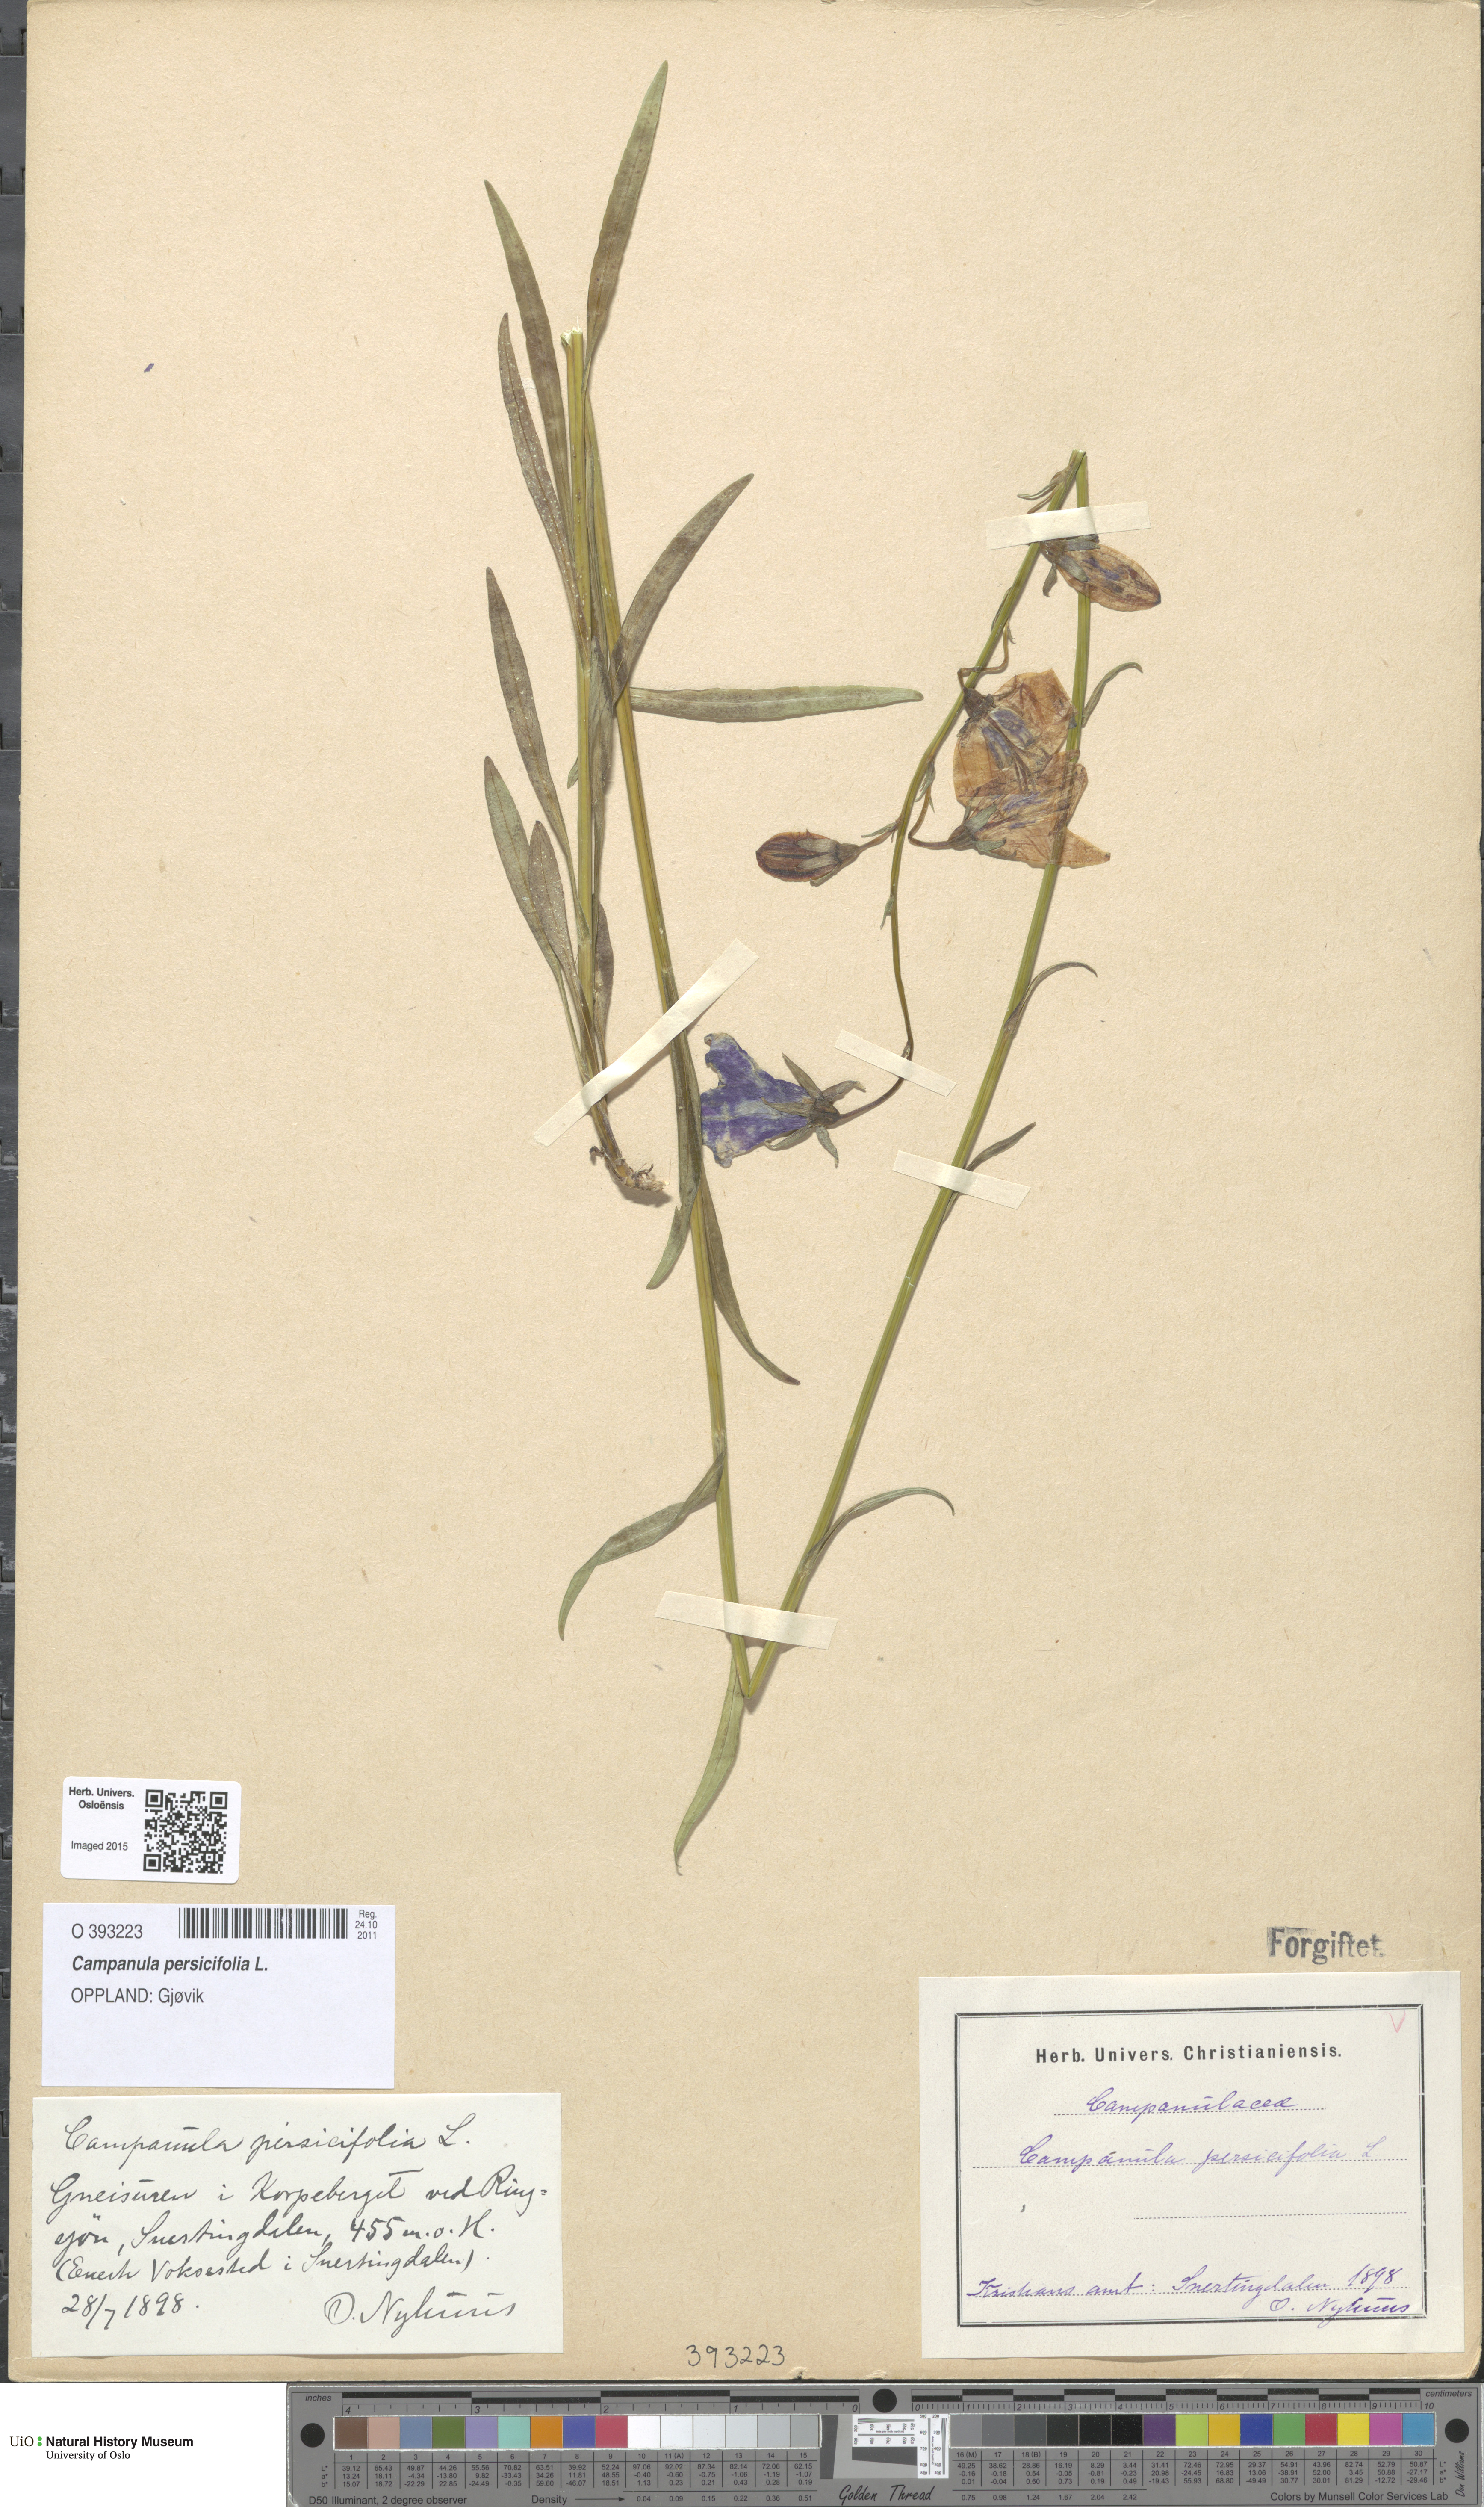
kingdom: Plantae
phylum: Tracheophyta
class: Magnoliopsida
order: Asterales
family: Campanulaceae
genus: Campanula
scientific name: Campanula persicifolia
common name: Peach-leaved bellflower
